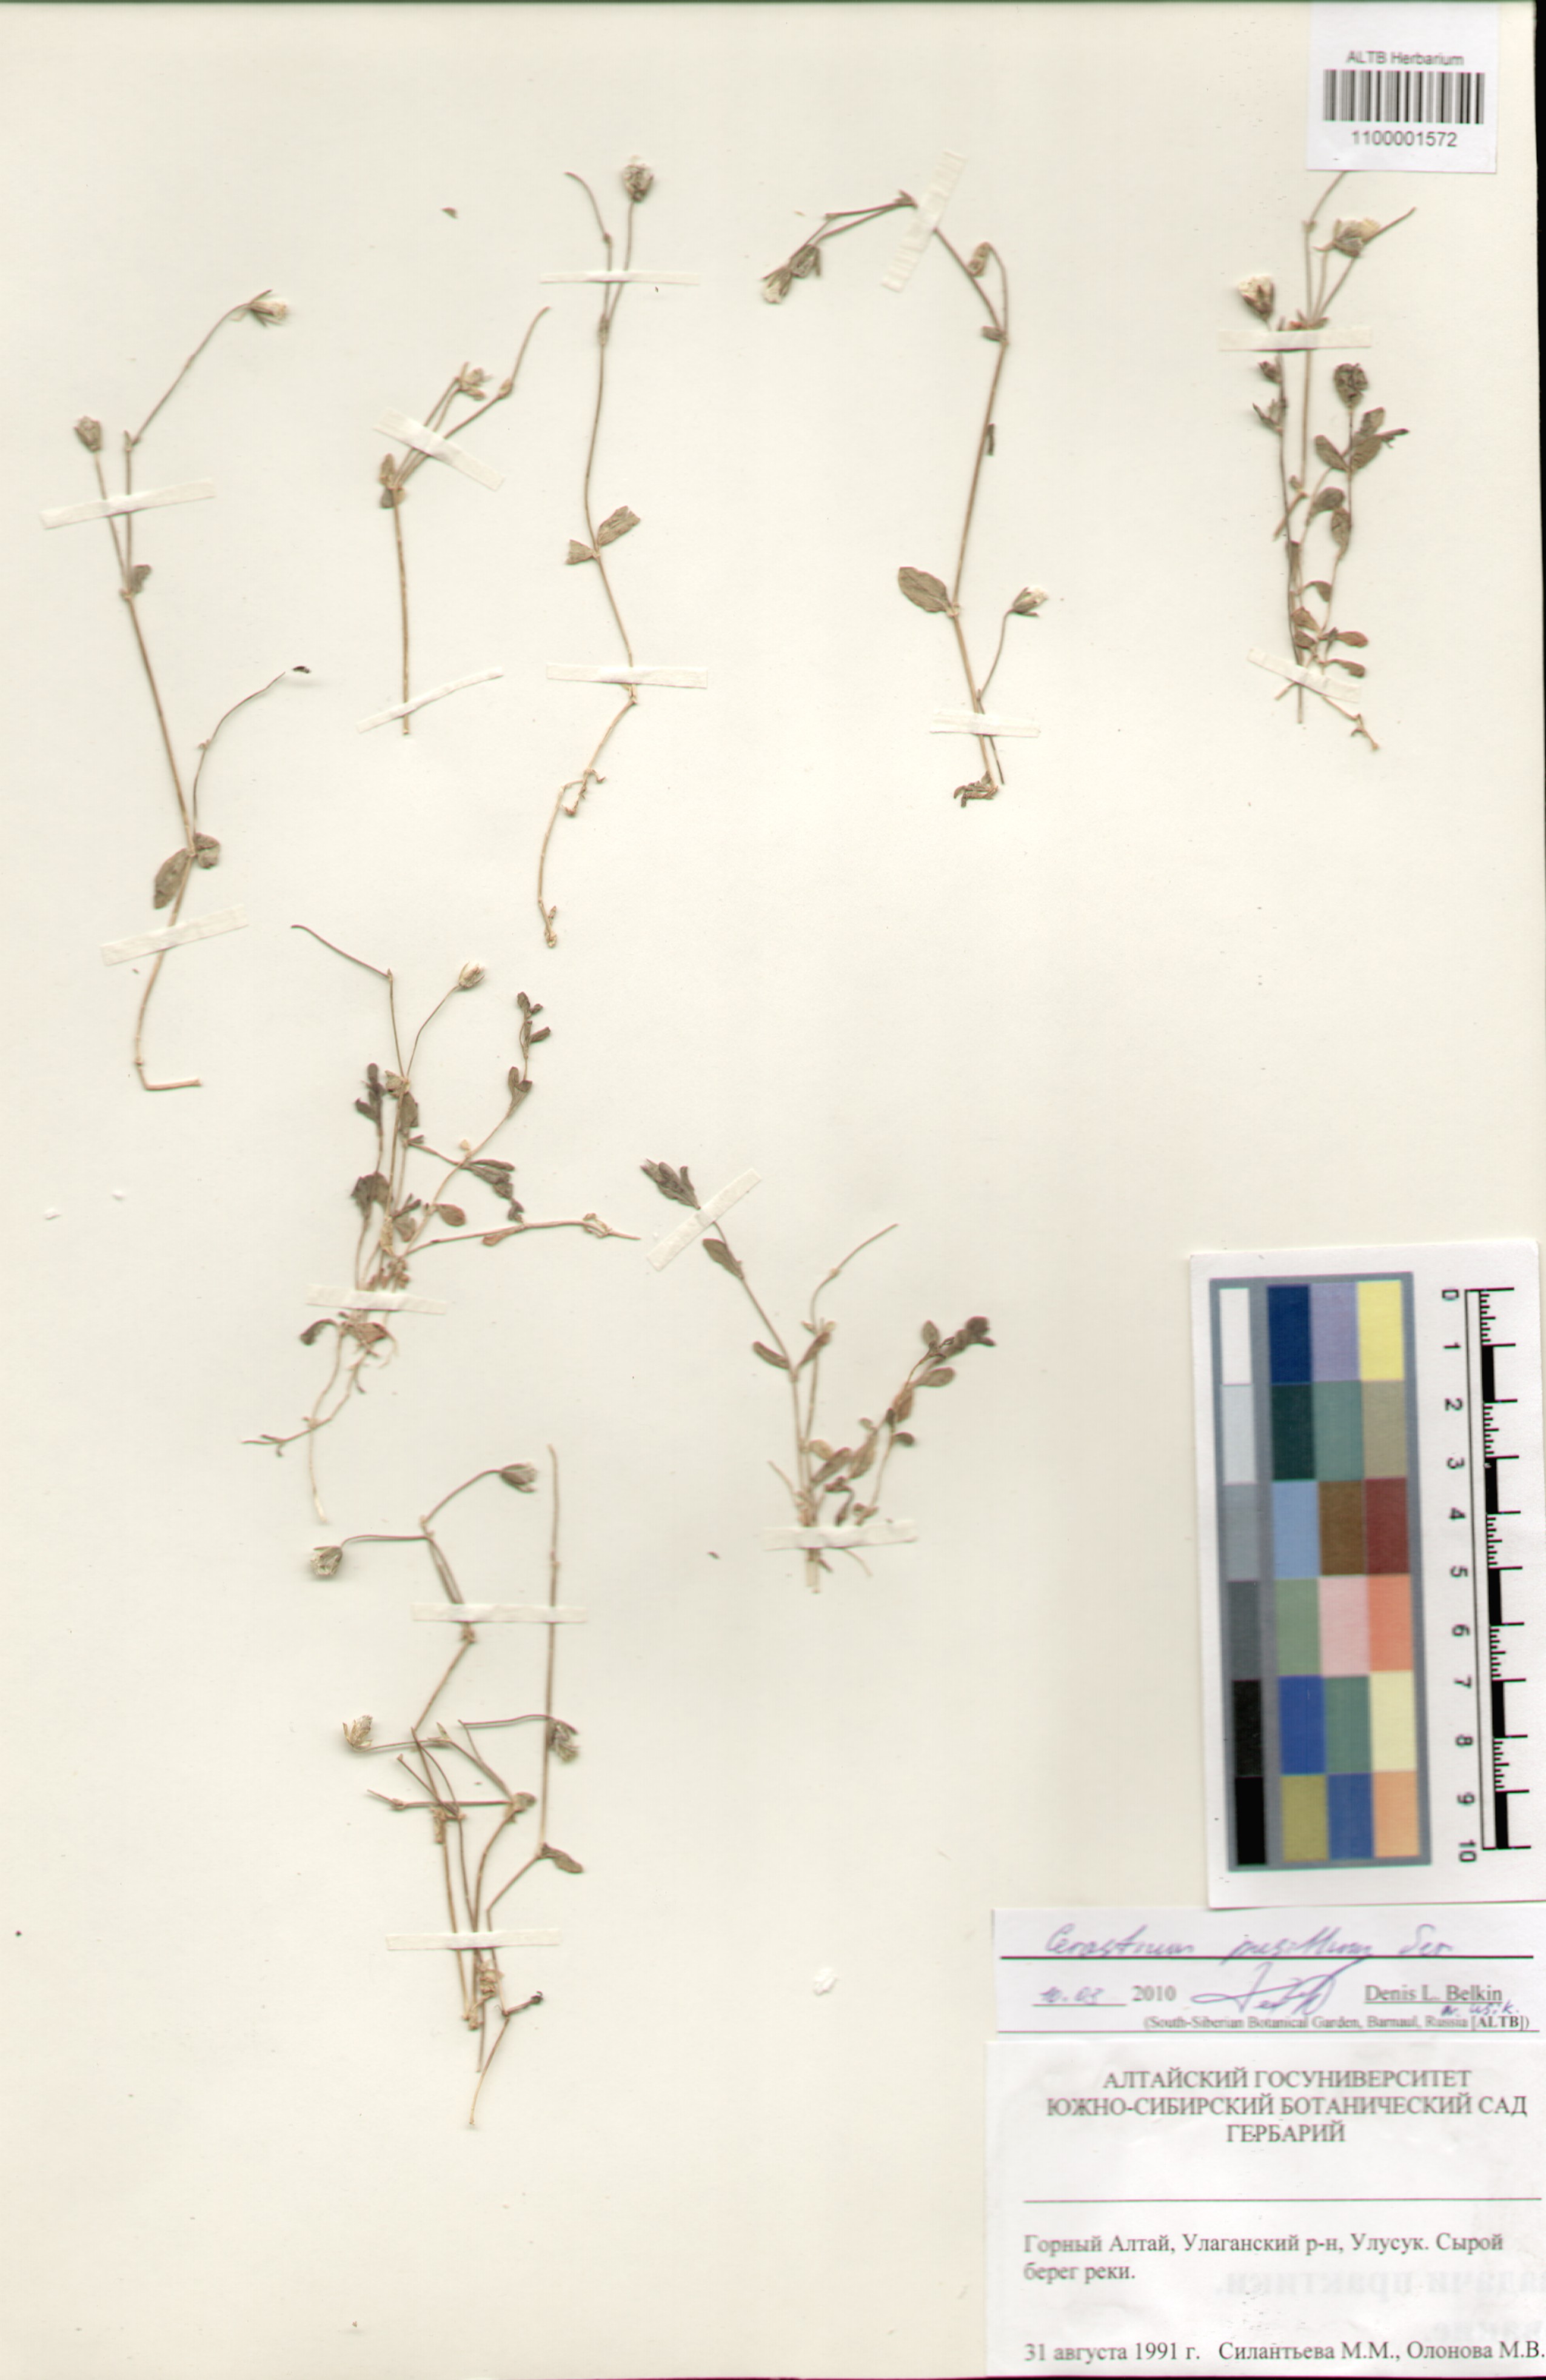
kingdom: Plantae
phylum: Tracheophyta
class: Magnoliopsida
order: Caryophyllales
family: Caryophyllaceae
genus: Cerastium
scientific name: Cerastium pusillum
